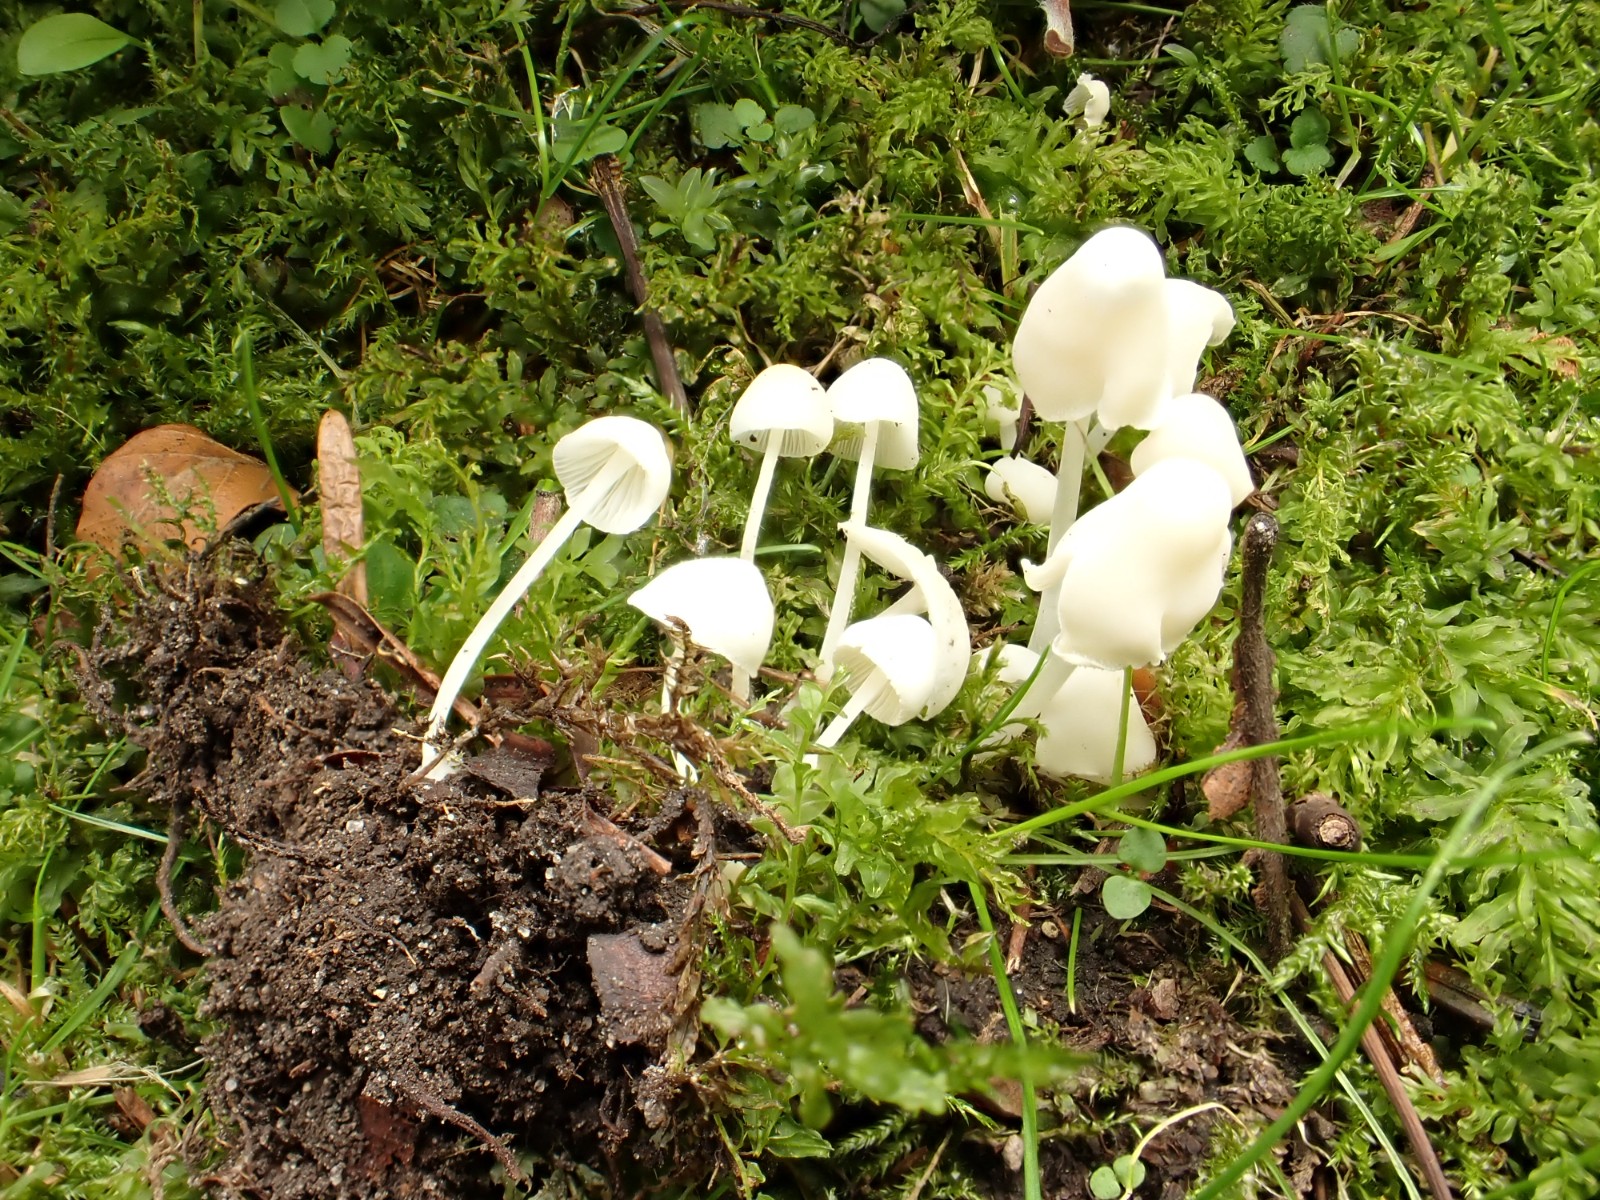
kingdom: Fungi
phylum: Basidiomycota
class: Agaricomycetes
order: Agaricales
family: Mycenaceae
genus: Hemimycena
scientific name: Hemimycena cucullata
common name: tætbladet huesvamp
